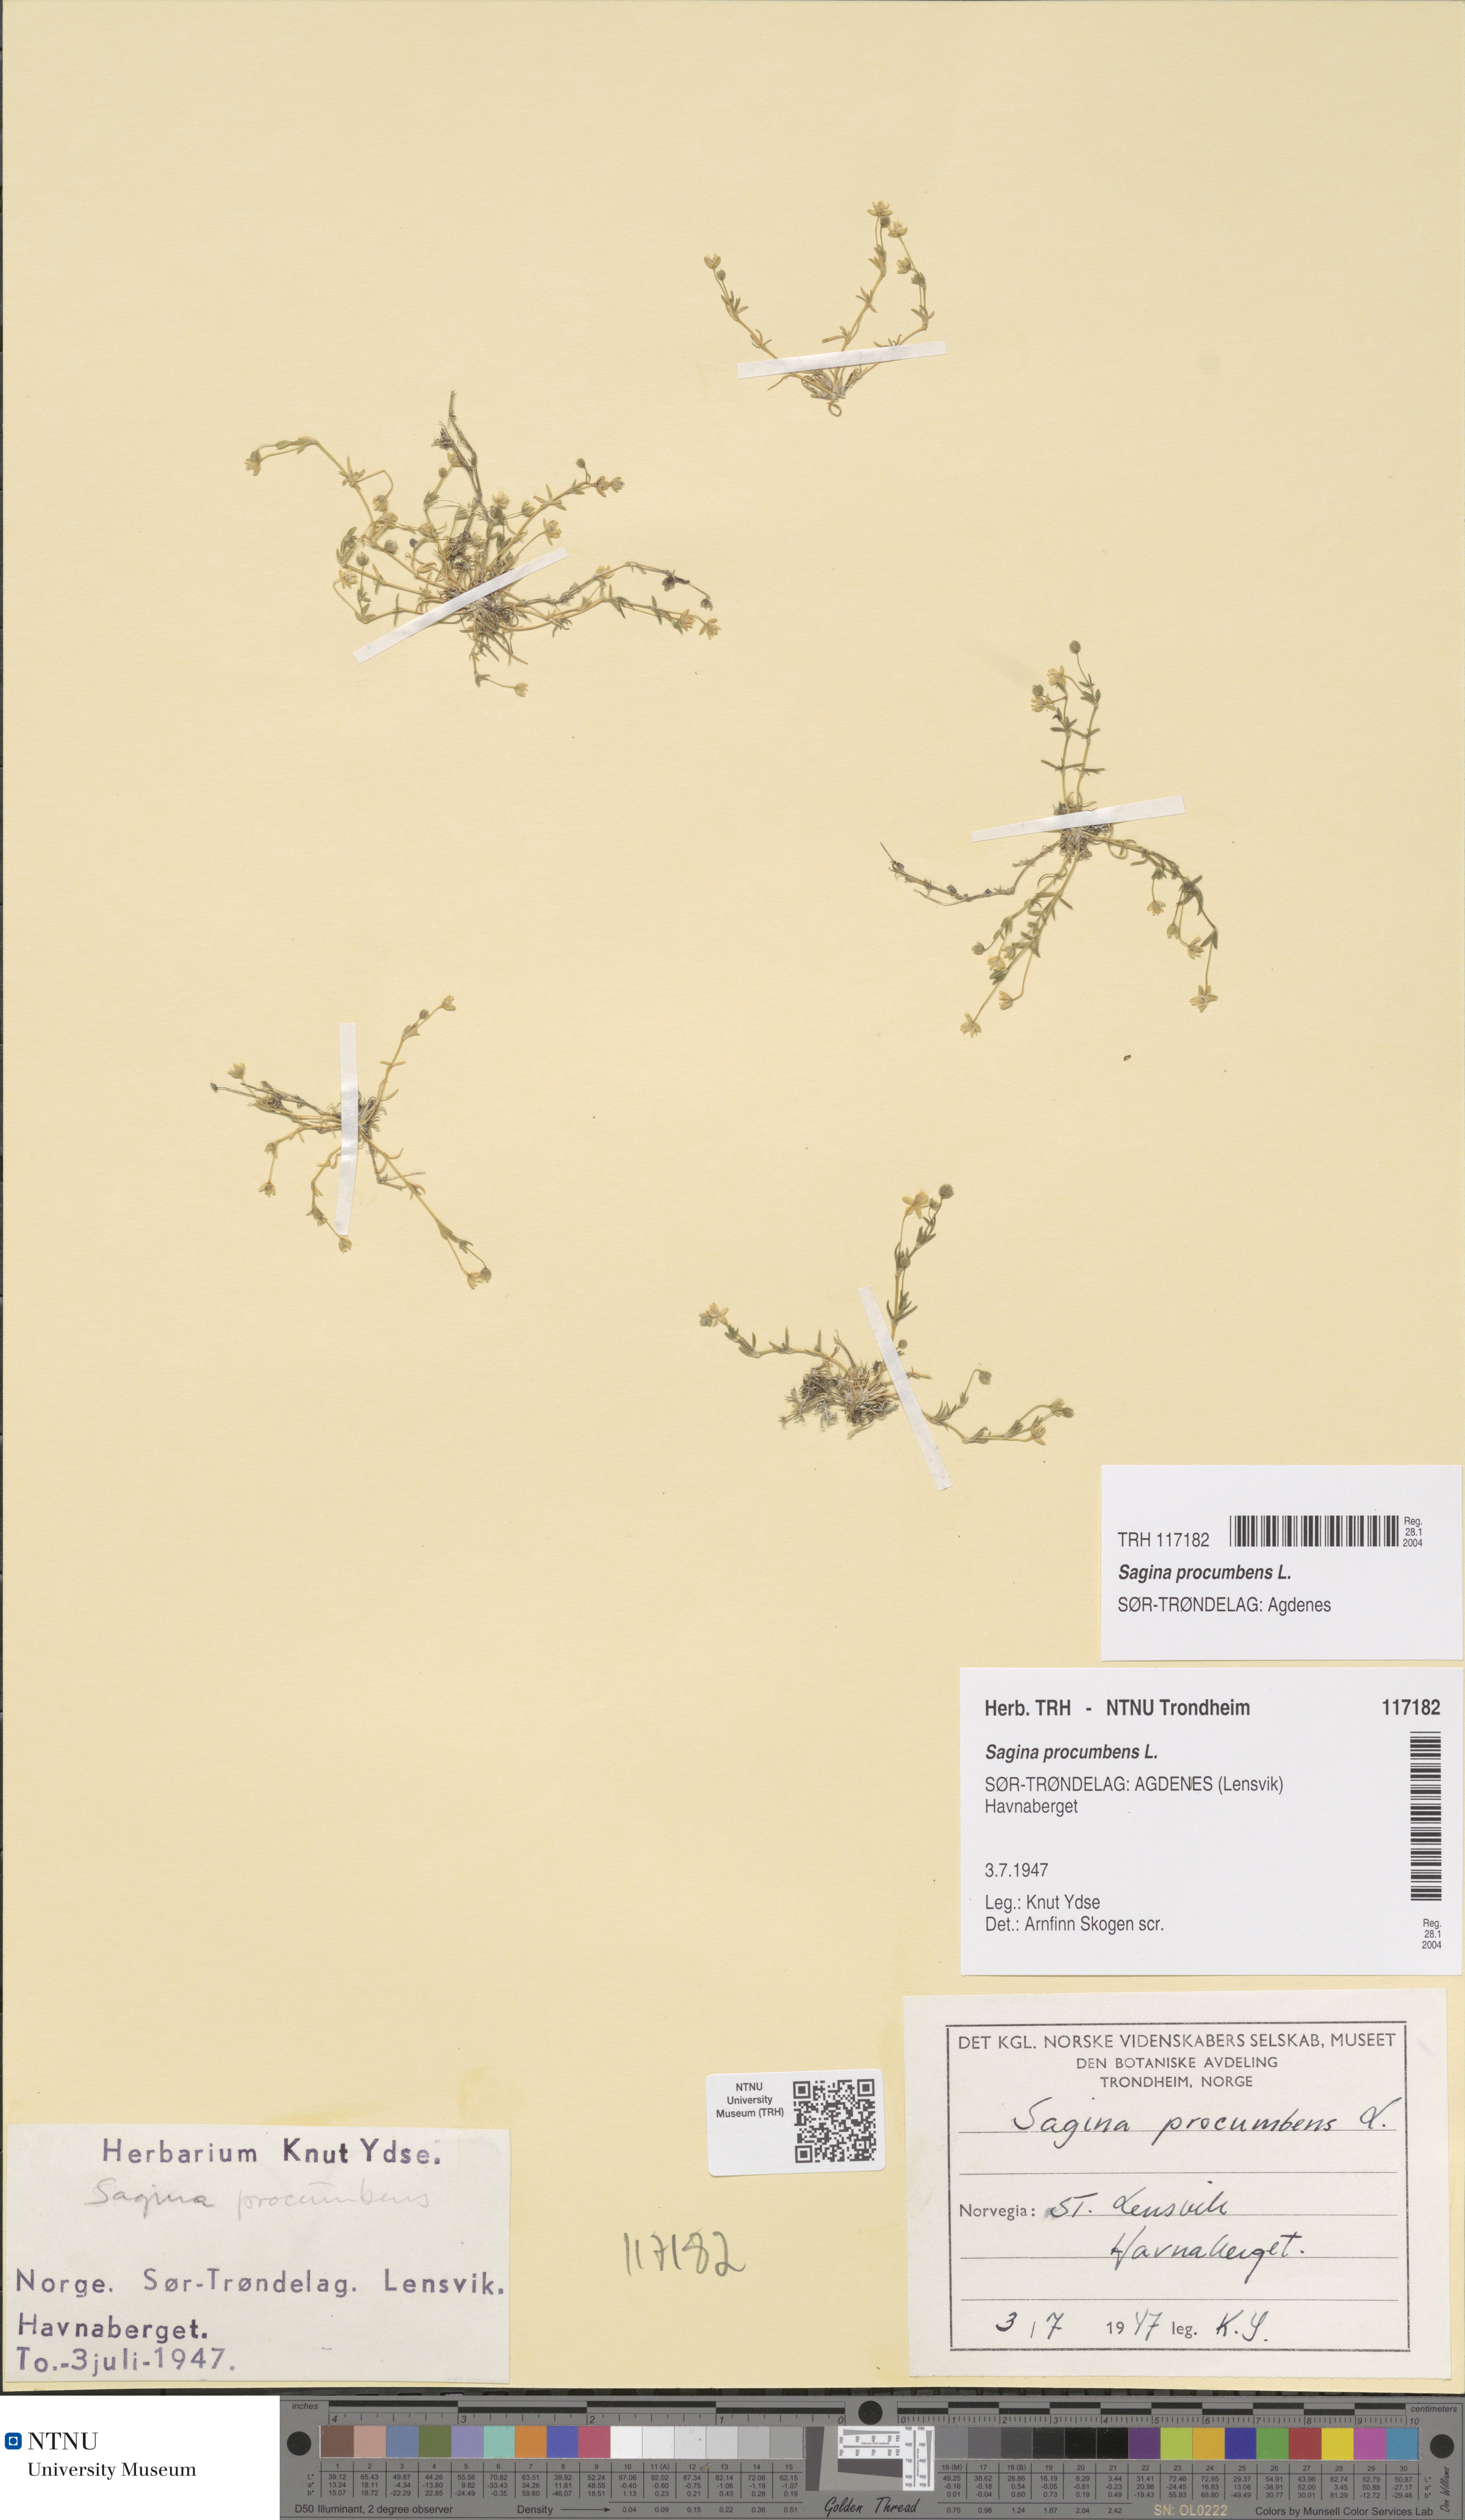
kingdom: Plantae
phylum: Tracheophyta
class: Magnoliopsida
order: Caryophyllales
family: Caryophyllaceae
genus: Sagina
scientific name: Sagina procumbens
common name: Procumbent pearlwort
